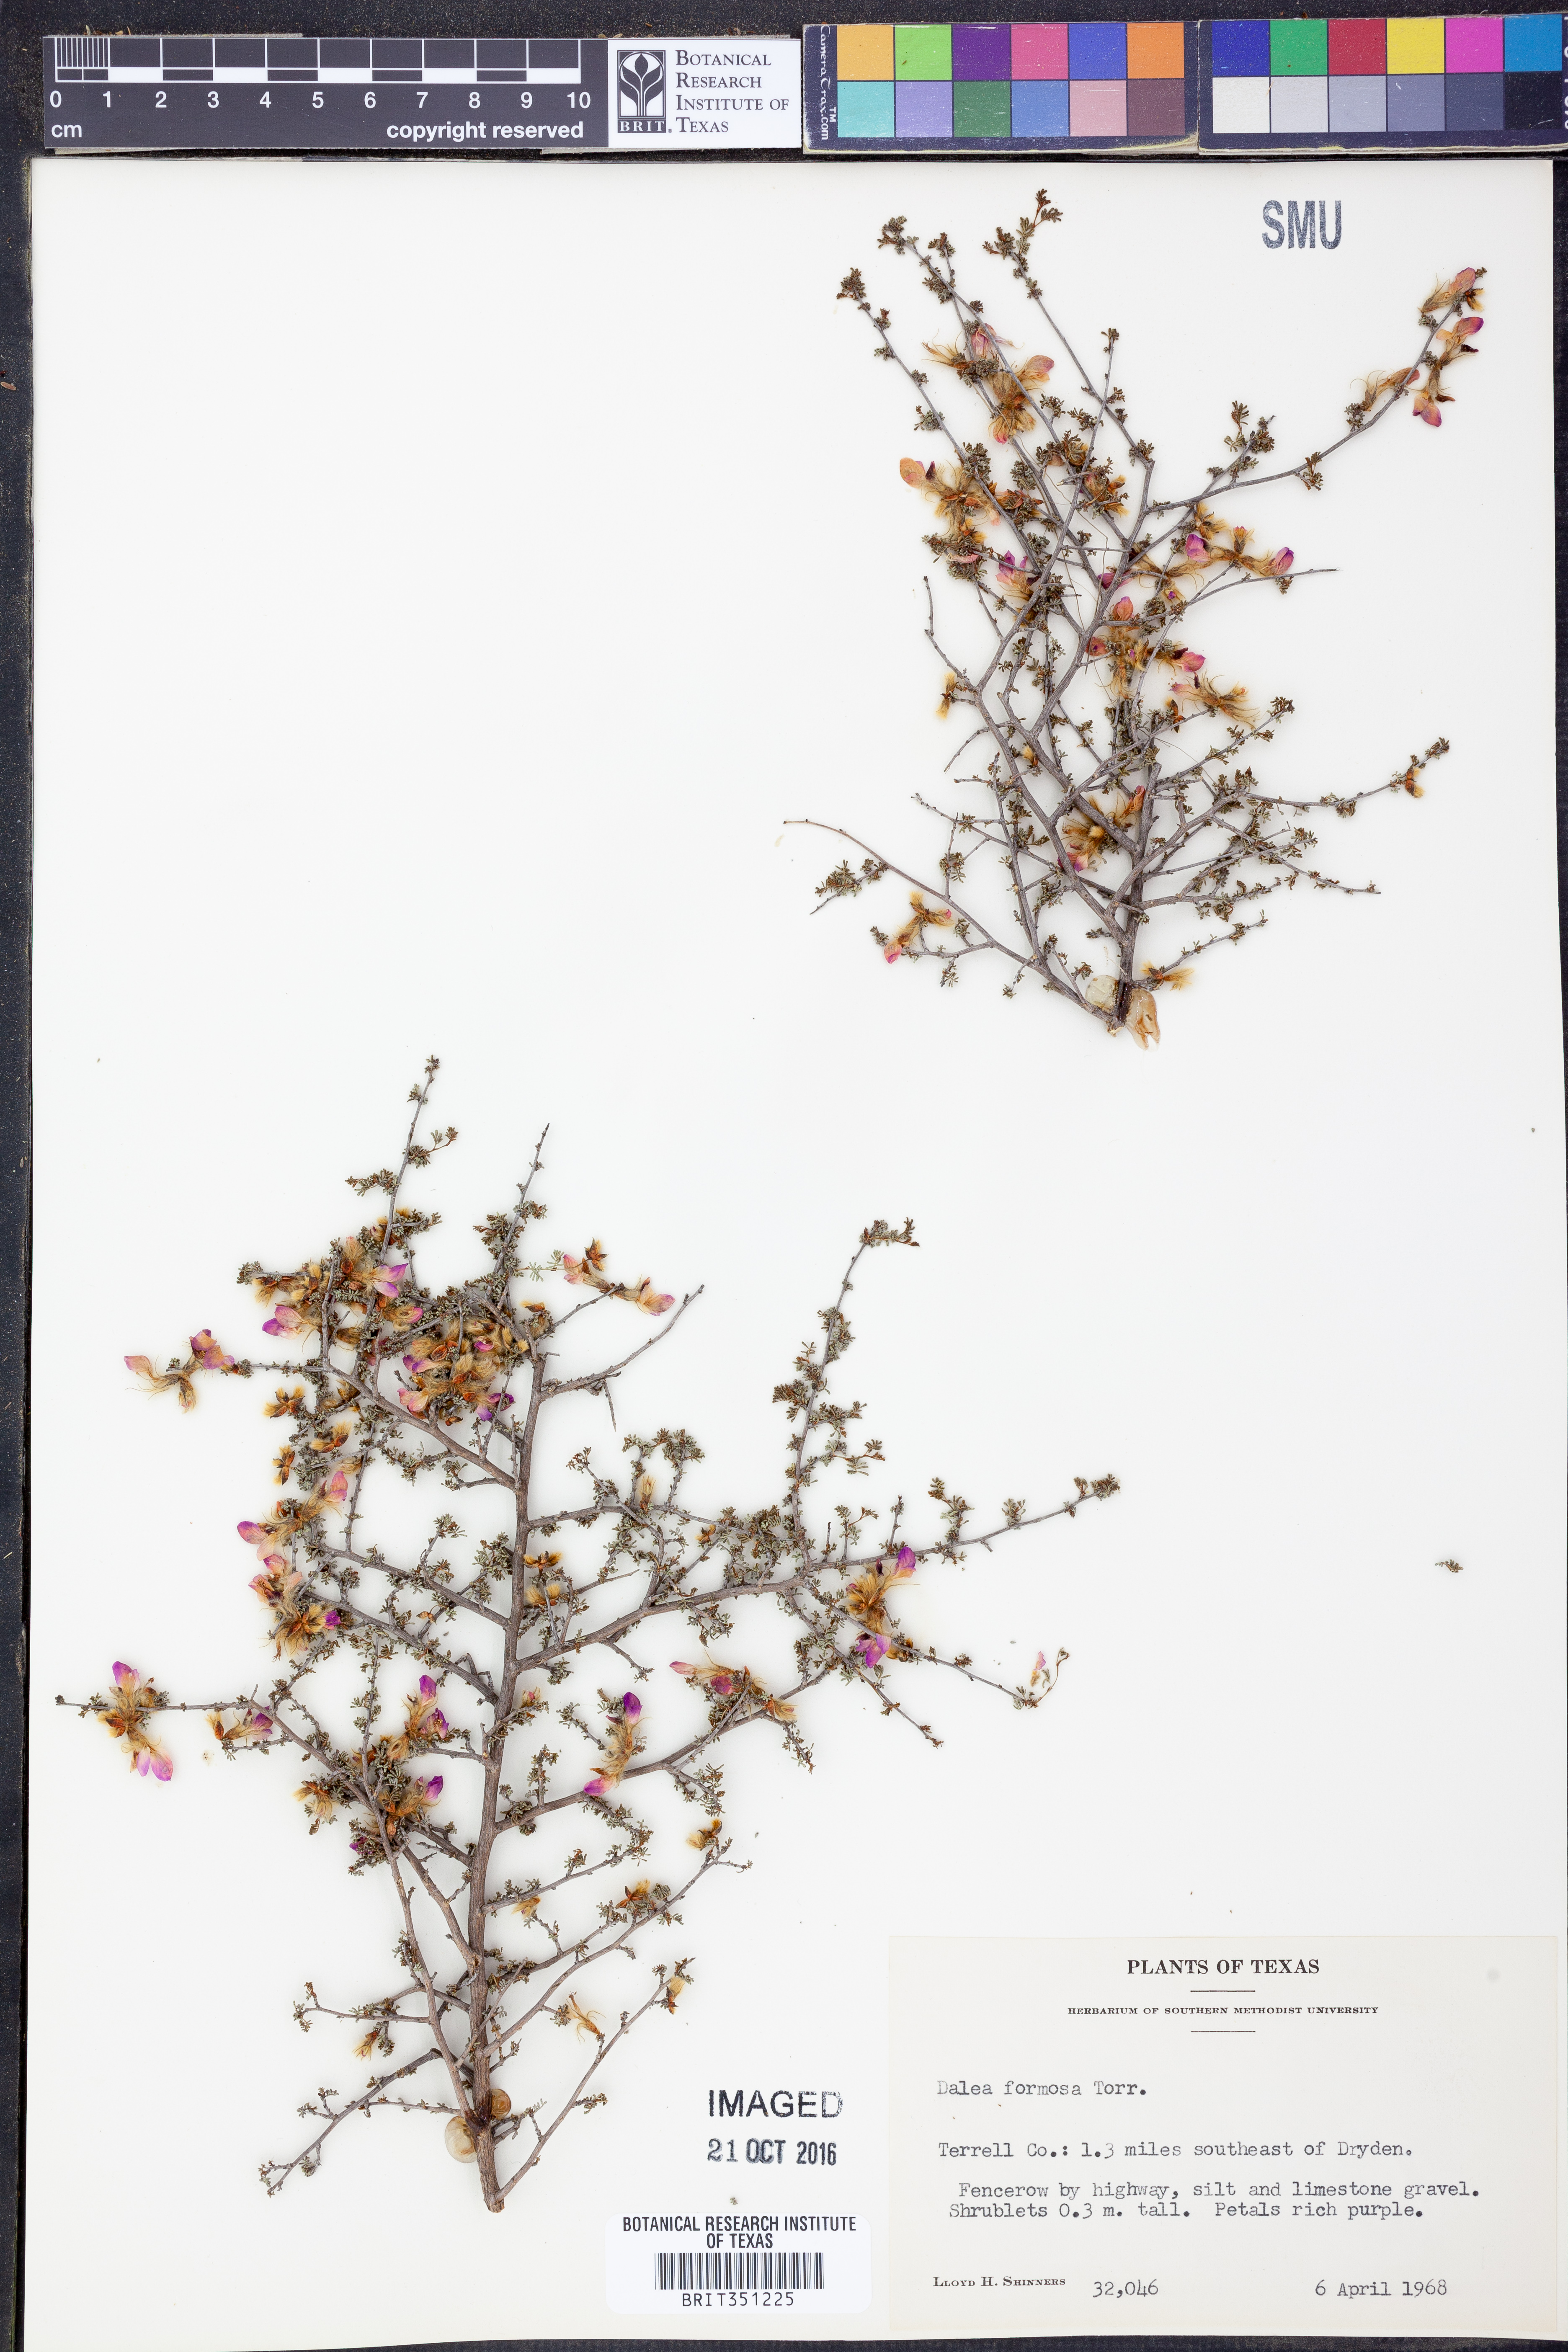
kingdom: Plantae
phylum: Tracheophyta
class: Magnoliopsida
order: Fabales
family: Fabaceae
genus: Dalea
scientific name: Dalea formosa
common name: Feather-plume dalea
